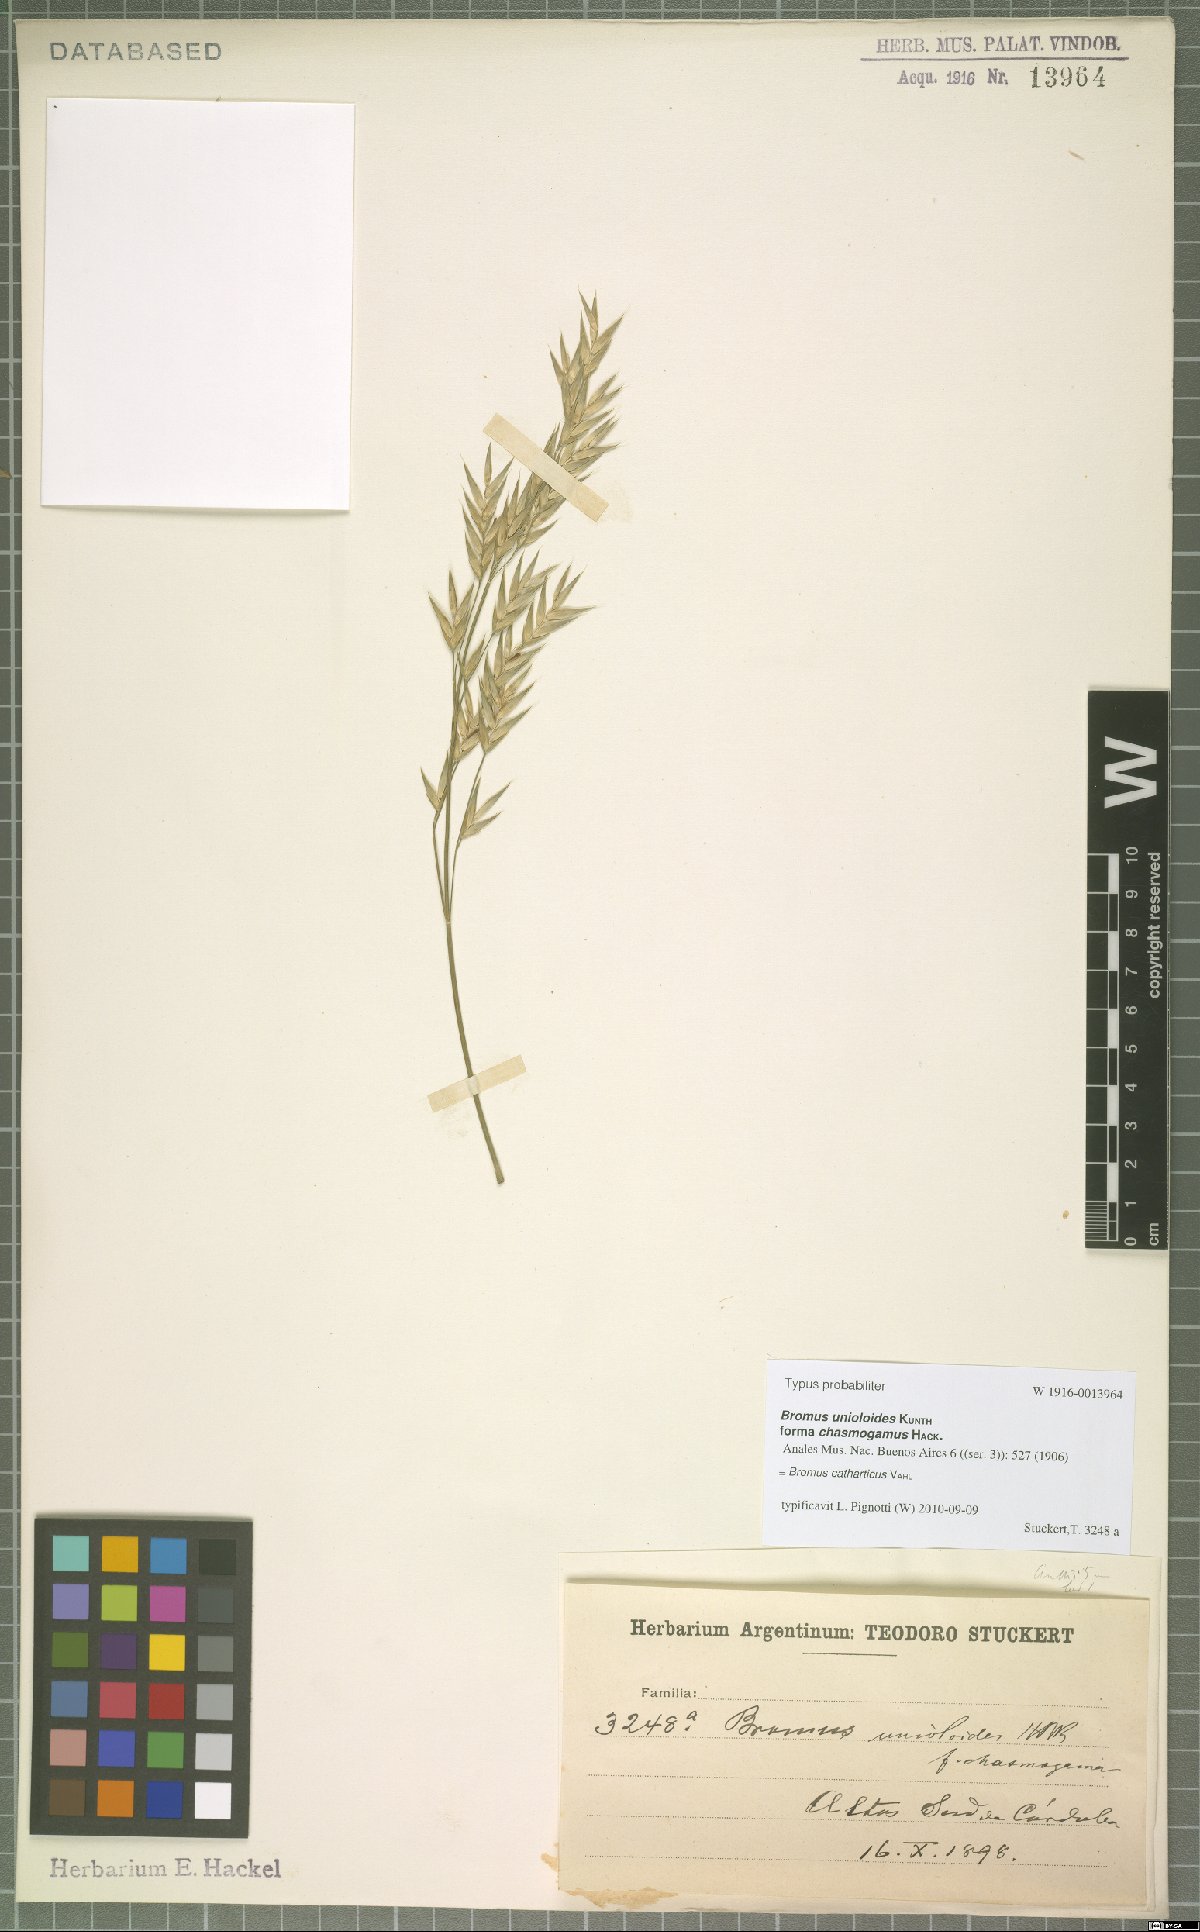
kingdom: Plantae
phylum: Tracheophyta
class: Liliopsida
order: Poales
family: Poaceae
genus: Bromus
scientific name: Bromus catharticus
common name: Rescuegrass
